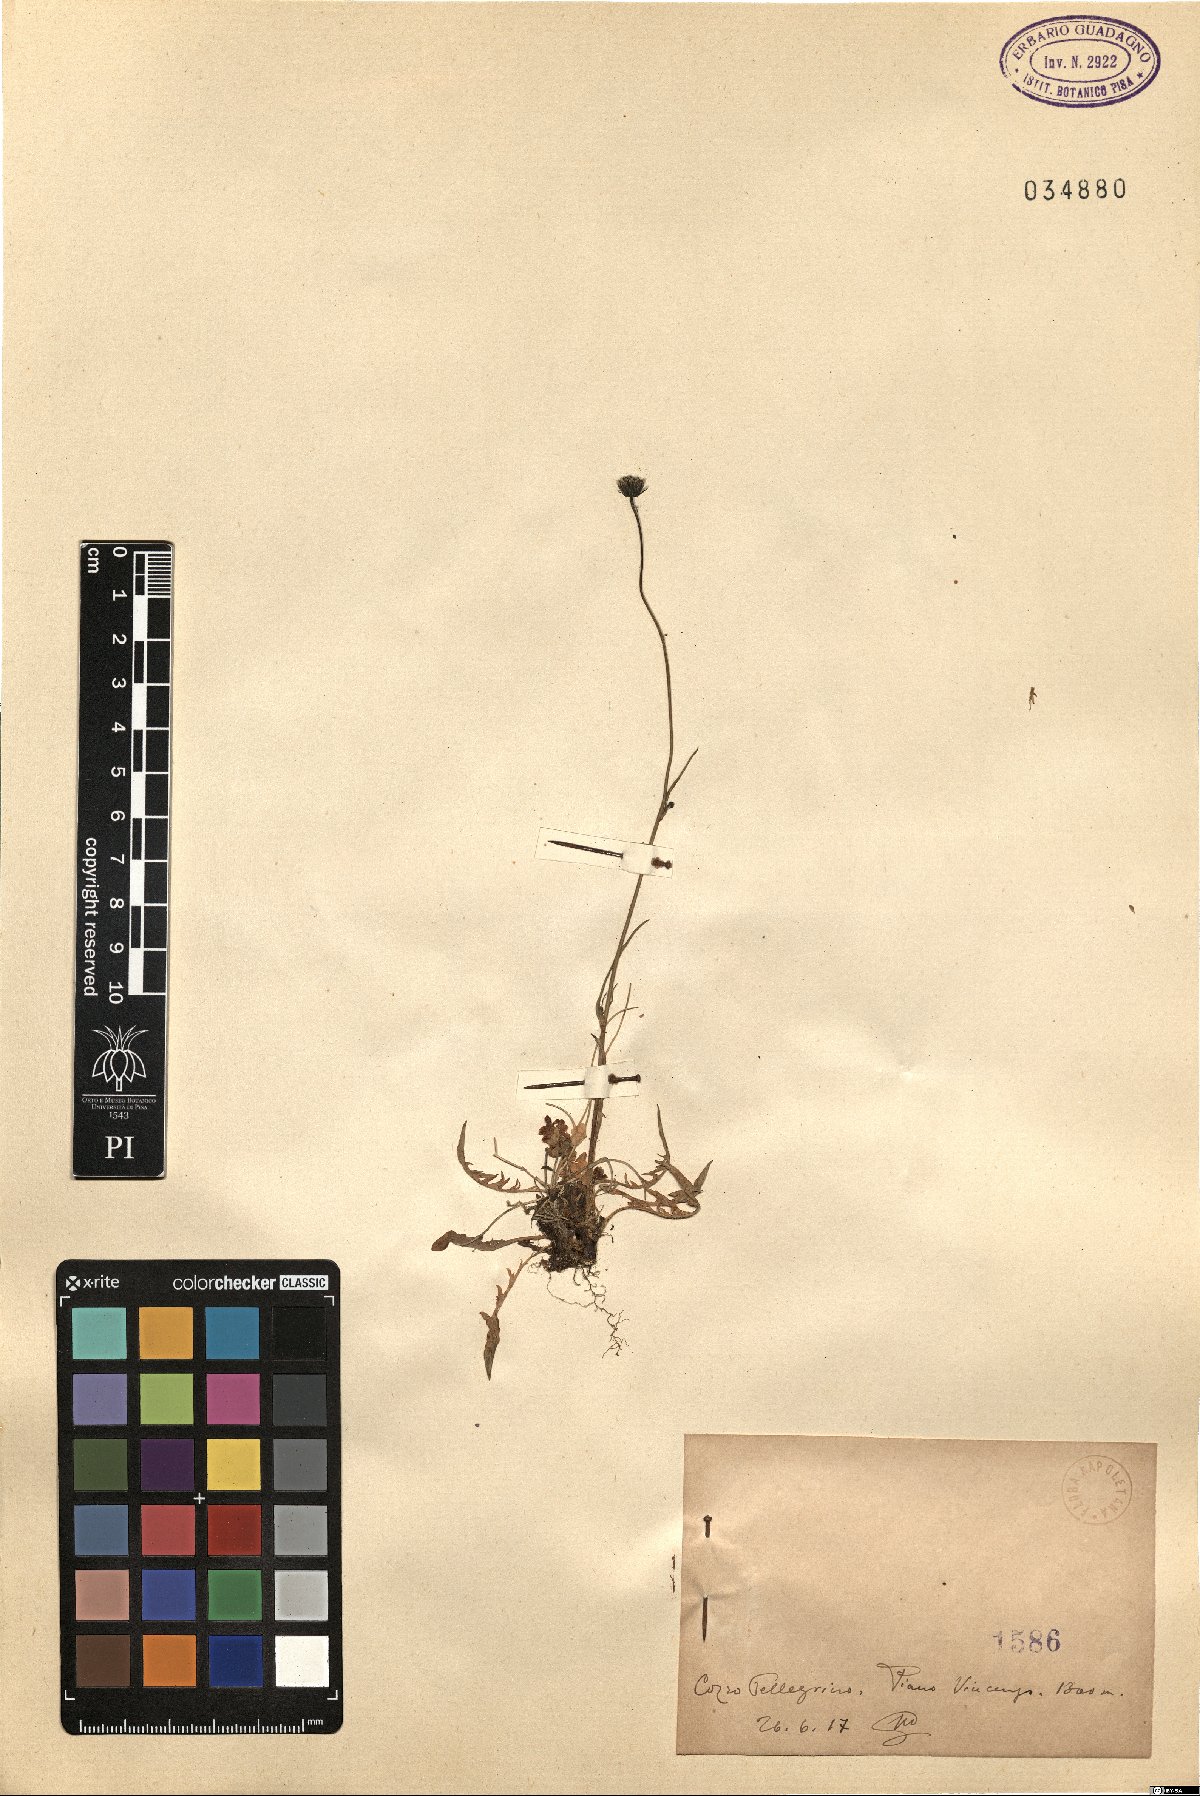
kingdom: Plantae
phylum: Tracheophyta
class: Magnoliopsida
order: Asterales
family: Asteraceae
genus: Hypochaeris
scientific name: Hypochaeris
